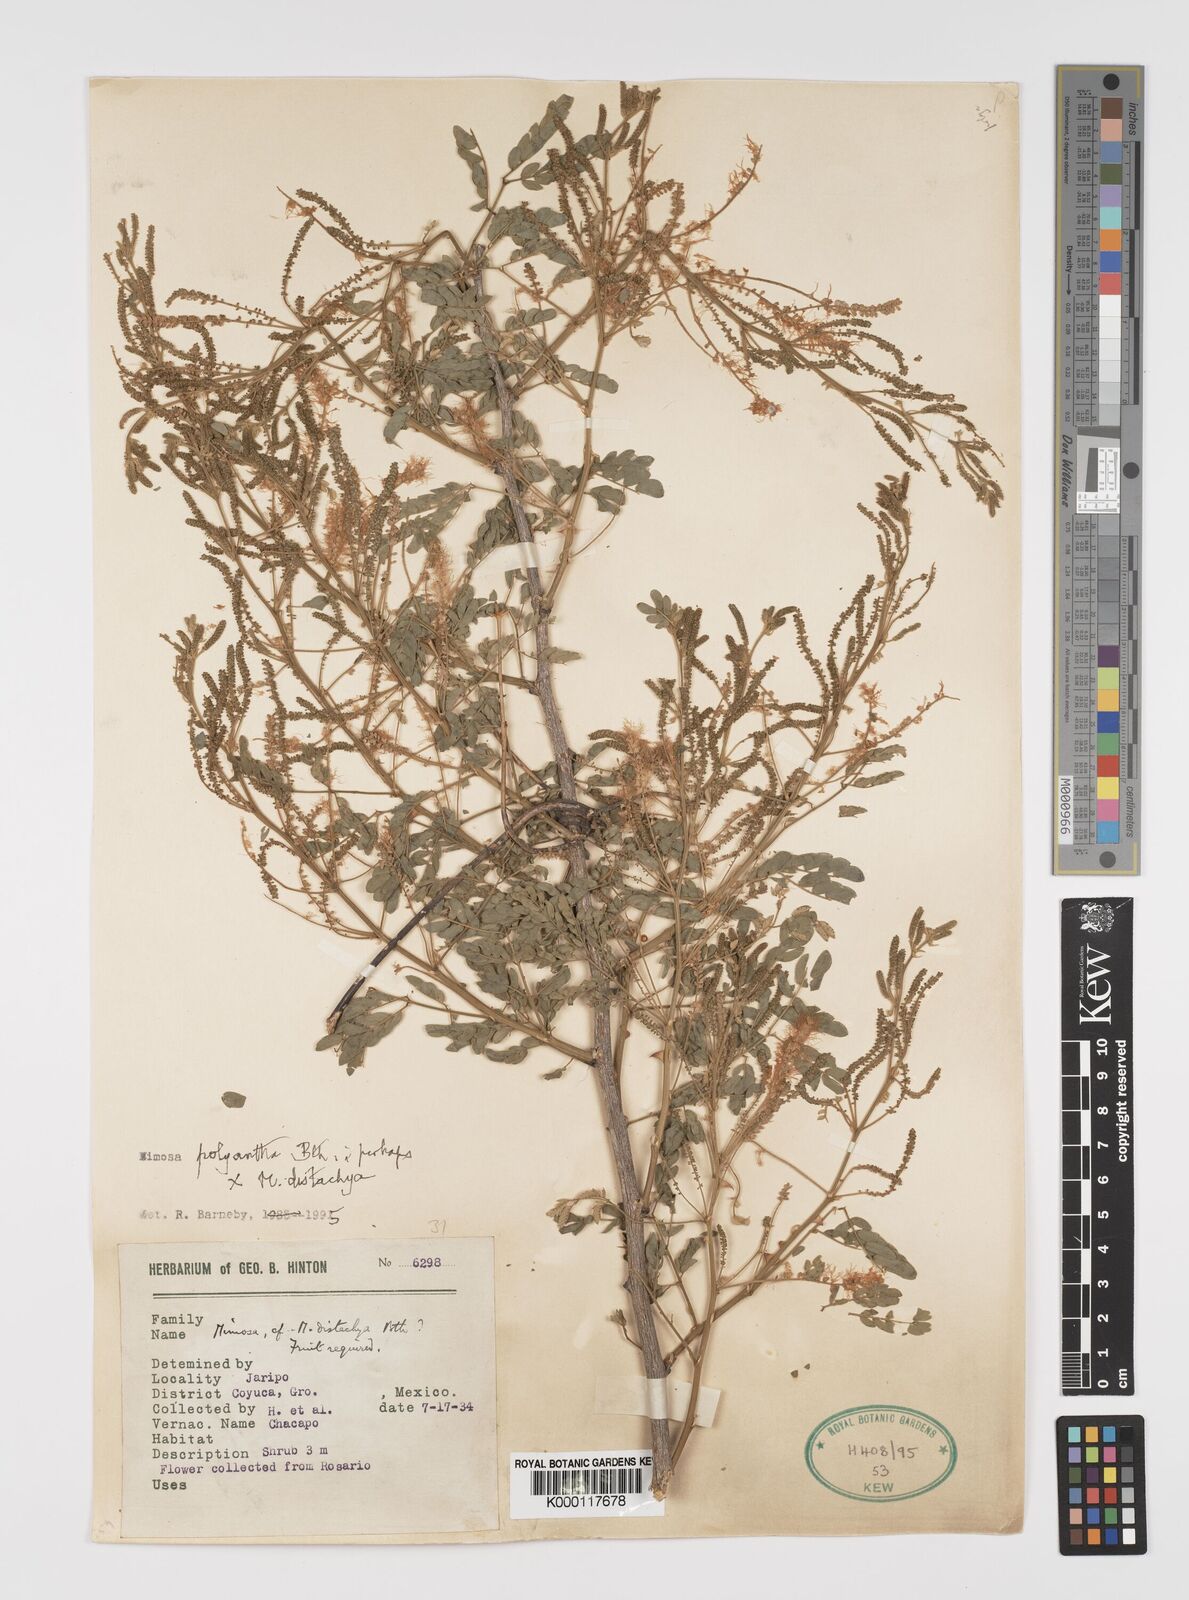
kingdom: Plantae
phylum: Tracheophyta
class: Magnoliopsida
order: Fabales
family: Fabaceae
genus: Mimosa
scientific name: Mimosa polyantha
